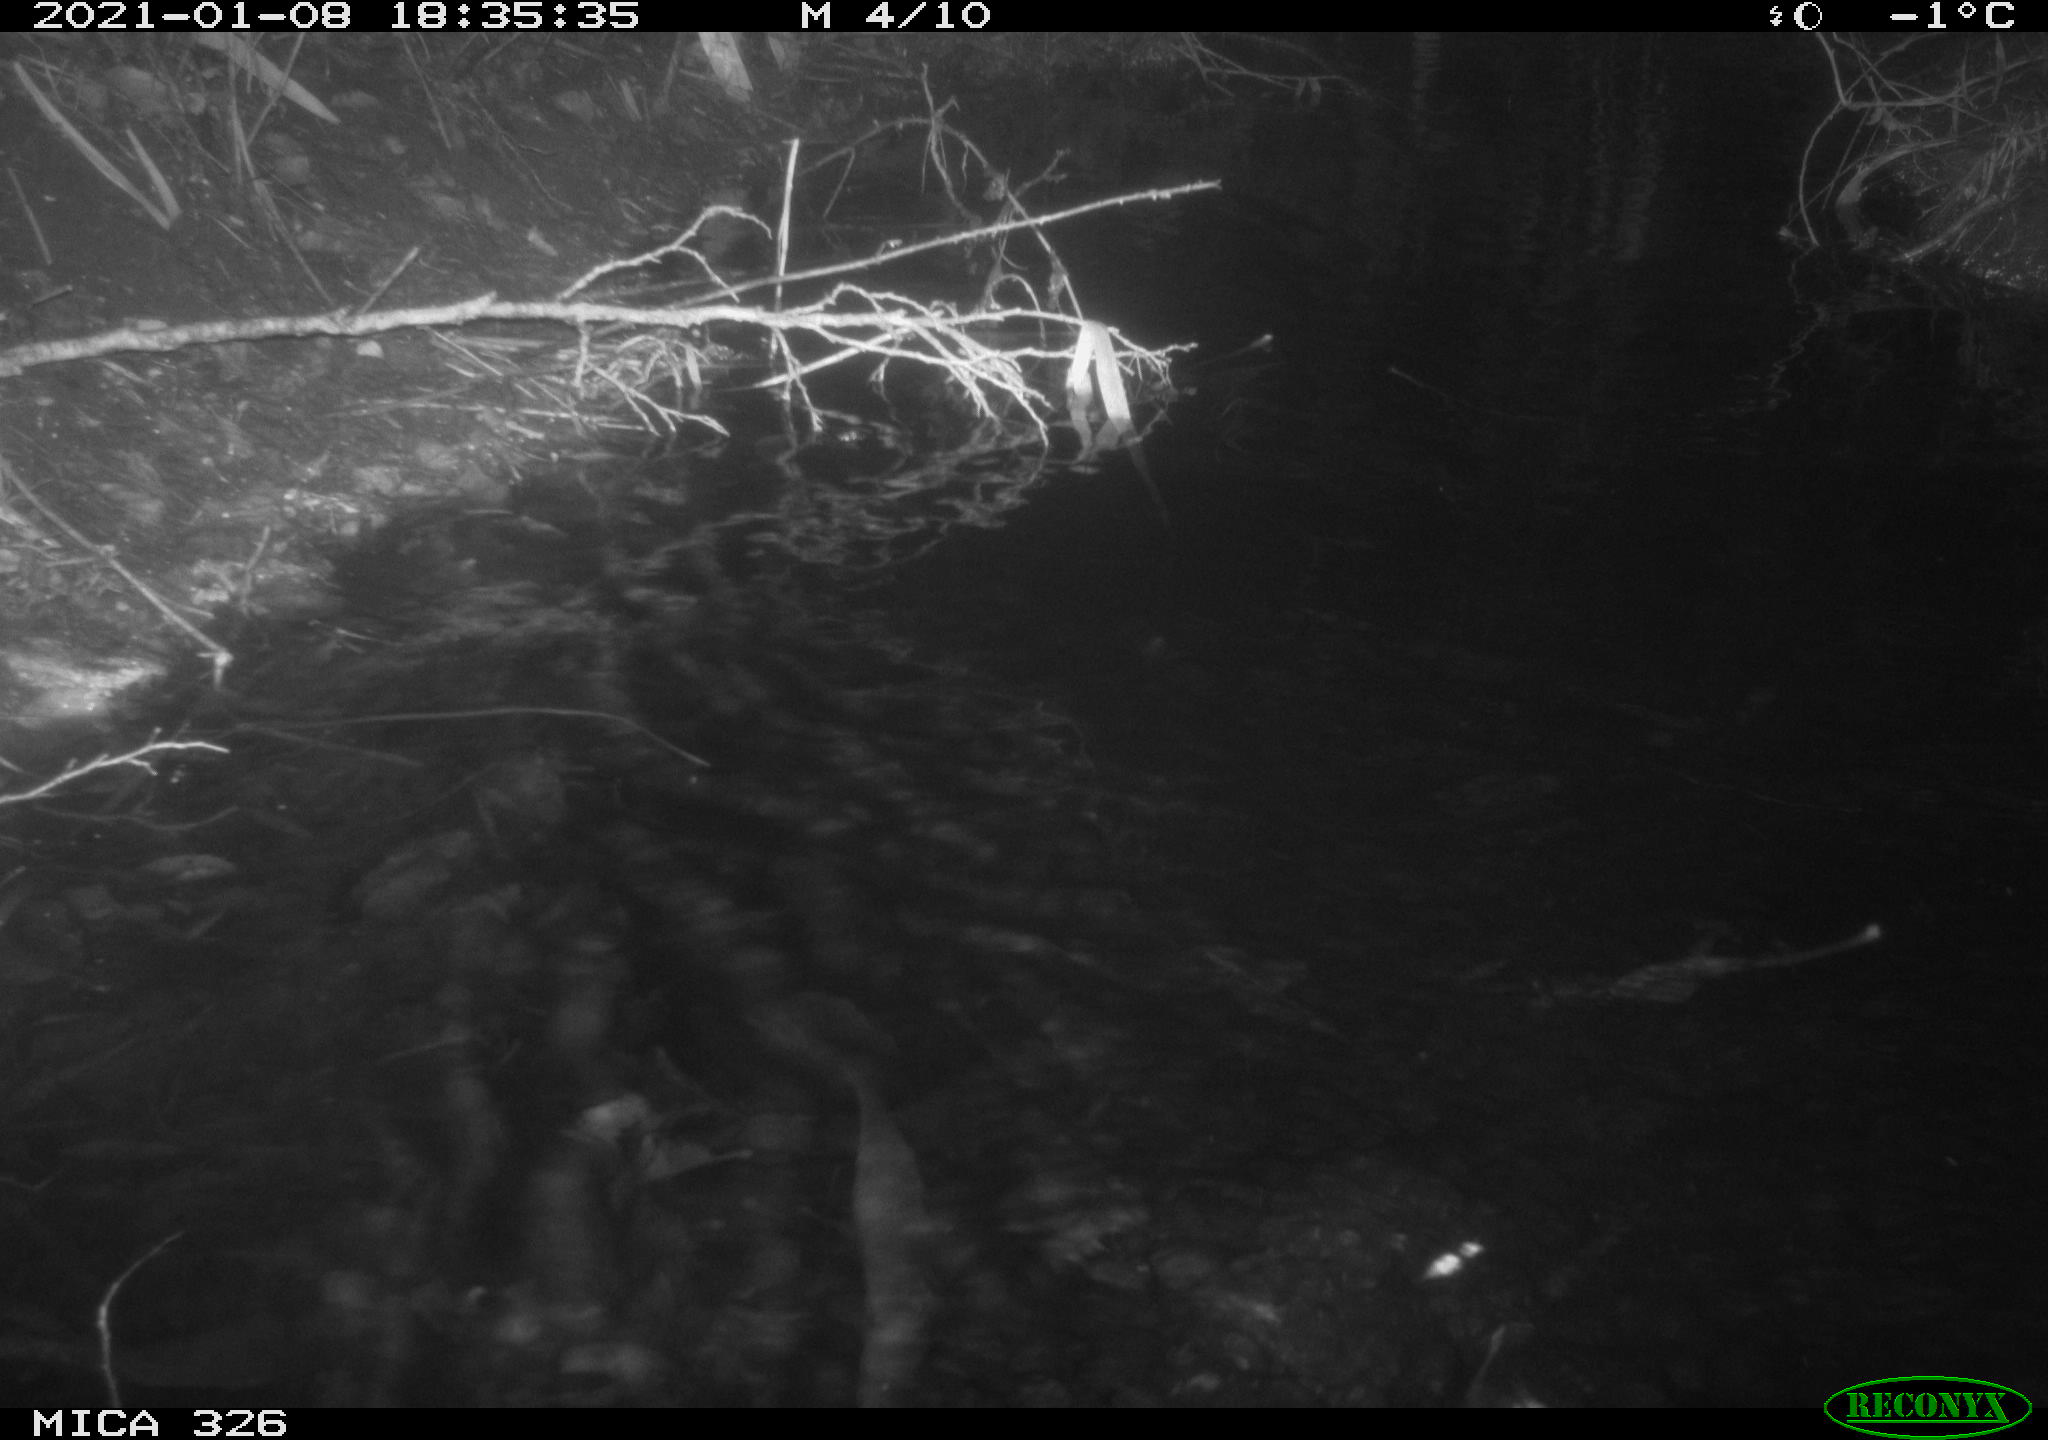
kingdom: Animalia
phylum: Chordata
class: Mammalia
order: Rodentia
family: Myocastoridae
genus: Myocastor
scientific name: Myocastor coypus
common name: Coypu
